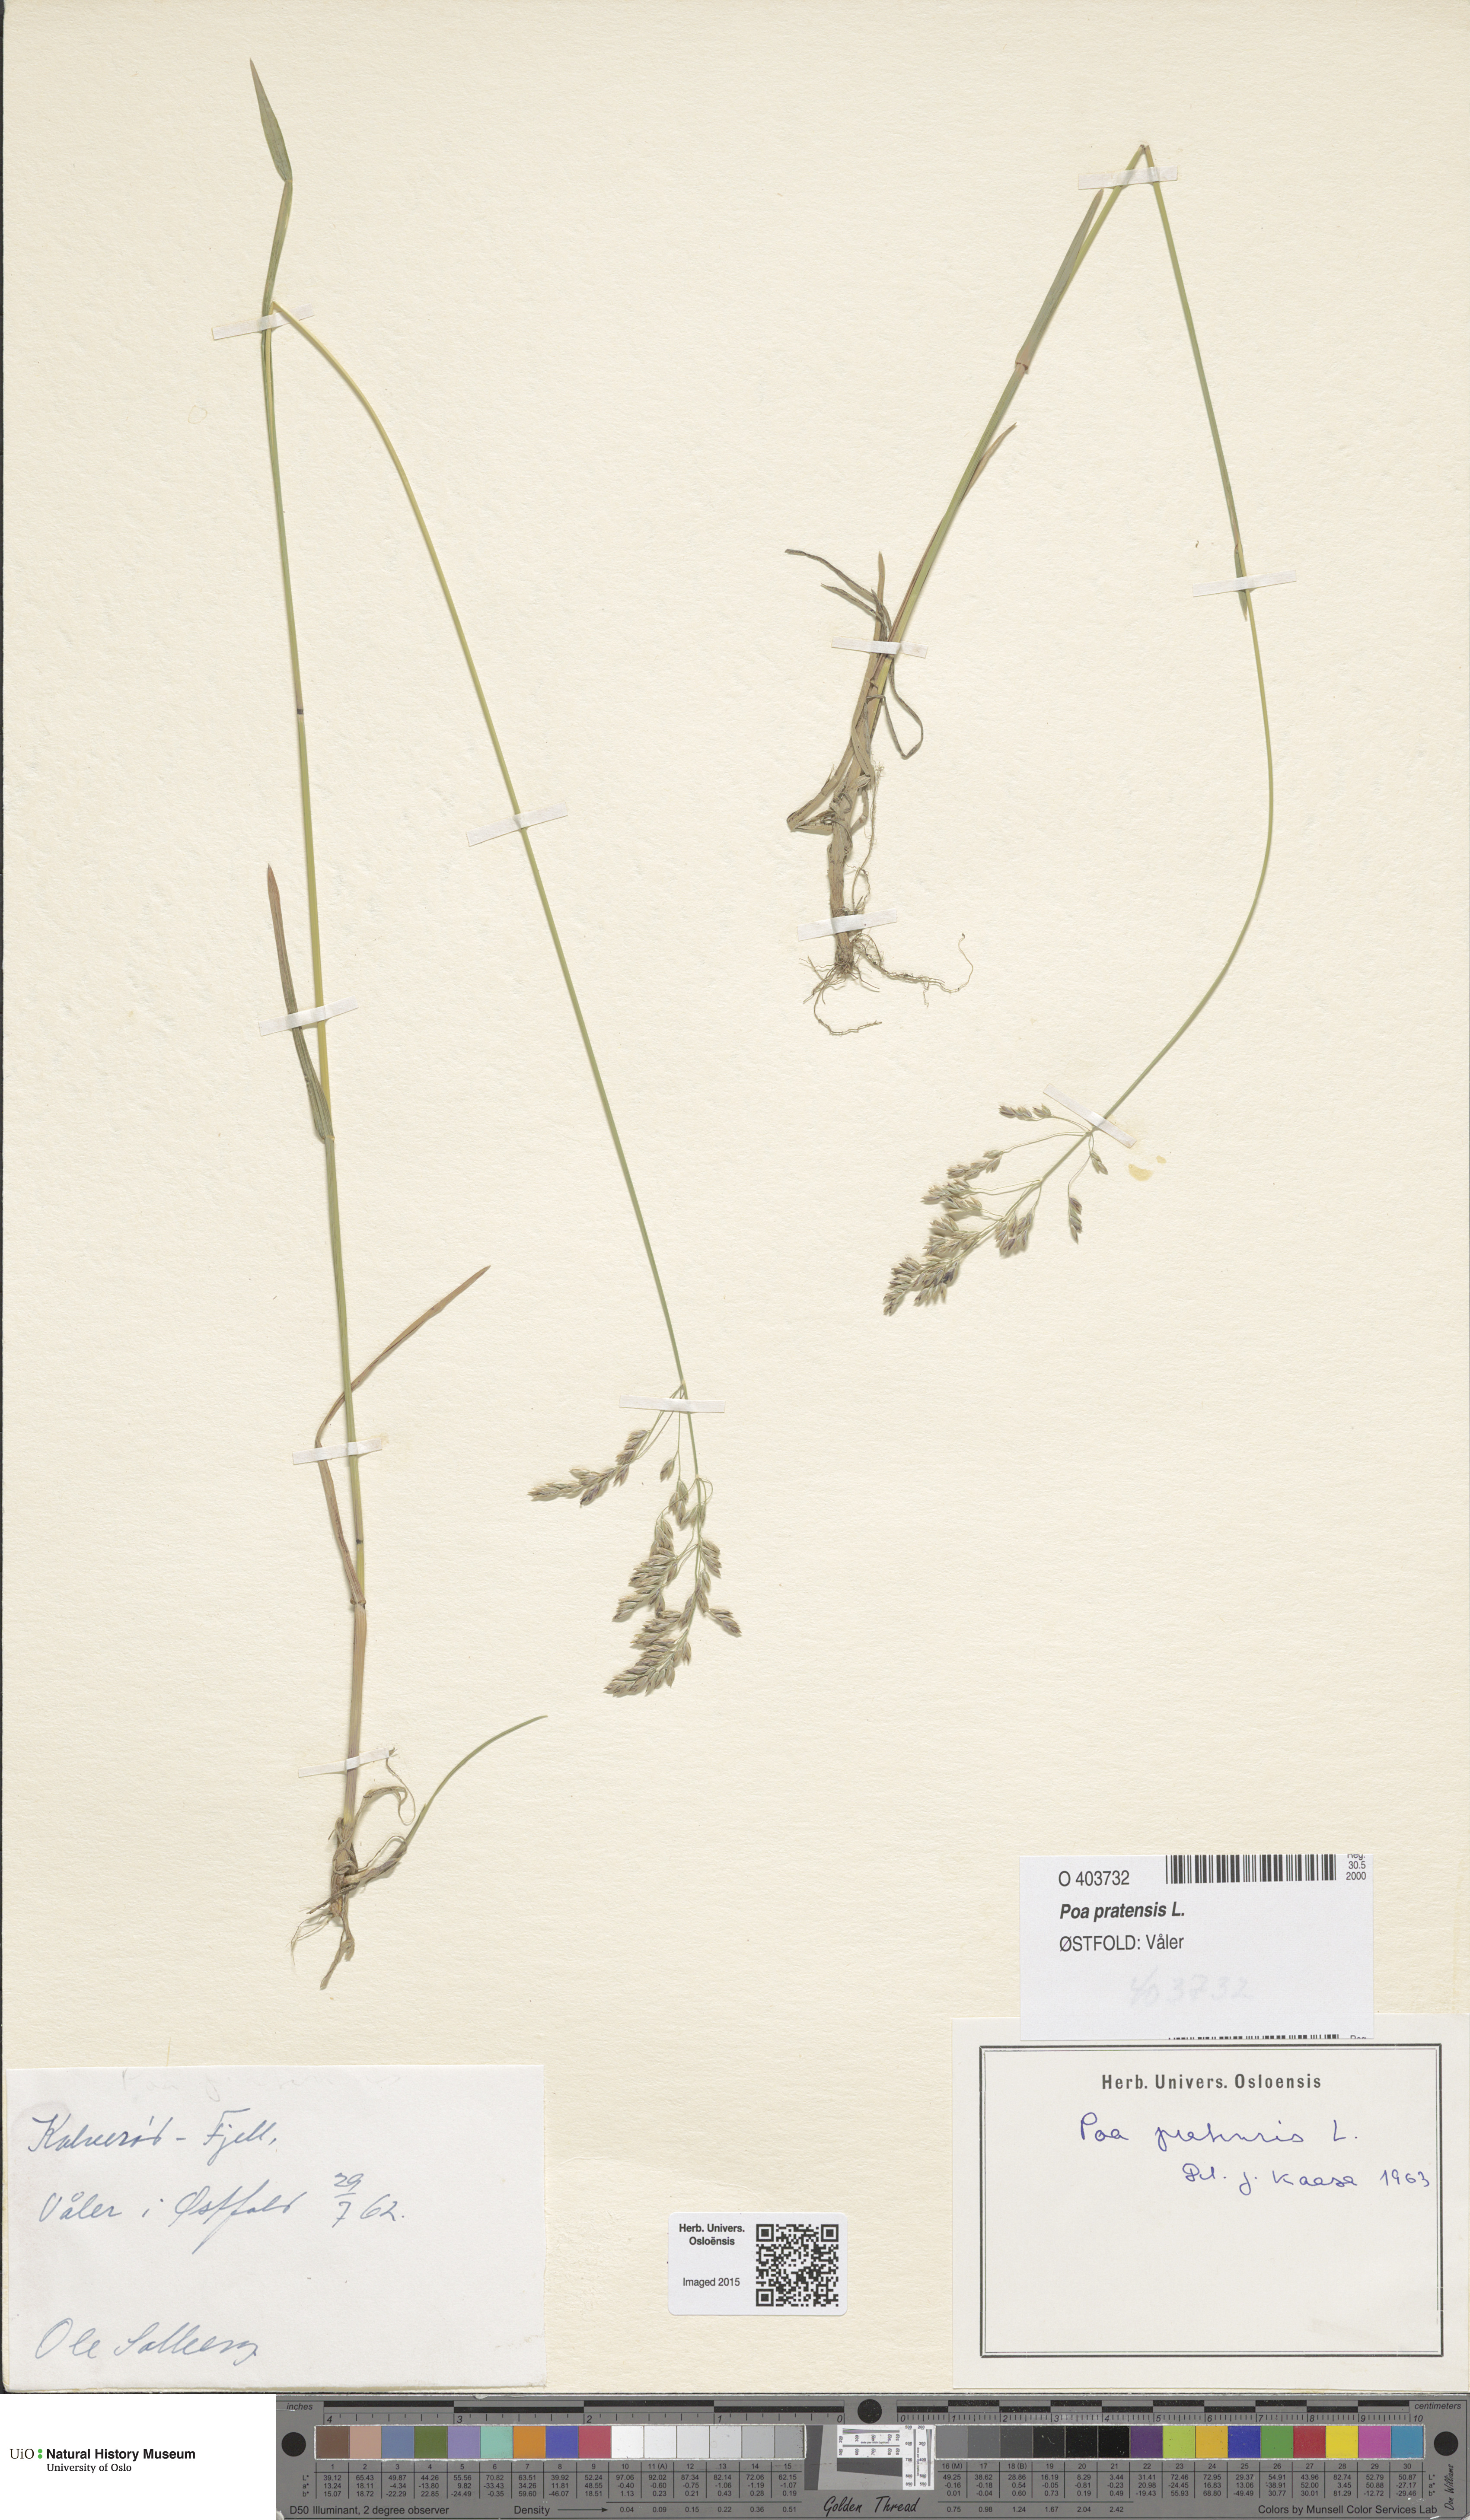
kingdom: Plantae
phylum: Tracheophyta
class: Liliopsida
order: Poales
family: Poaceae
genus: Poa
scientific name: Poa pratensis
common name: Kentucky bluegrass
